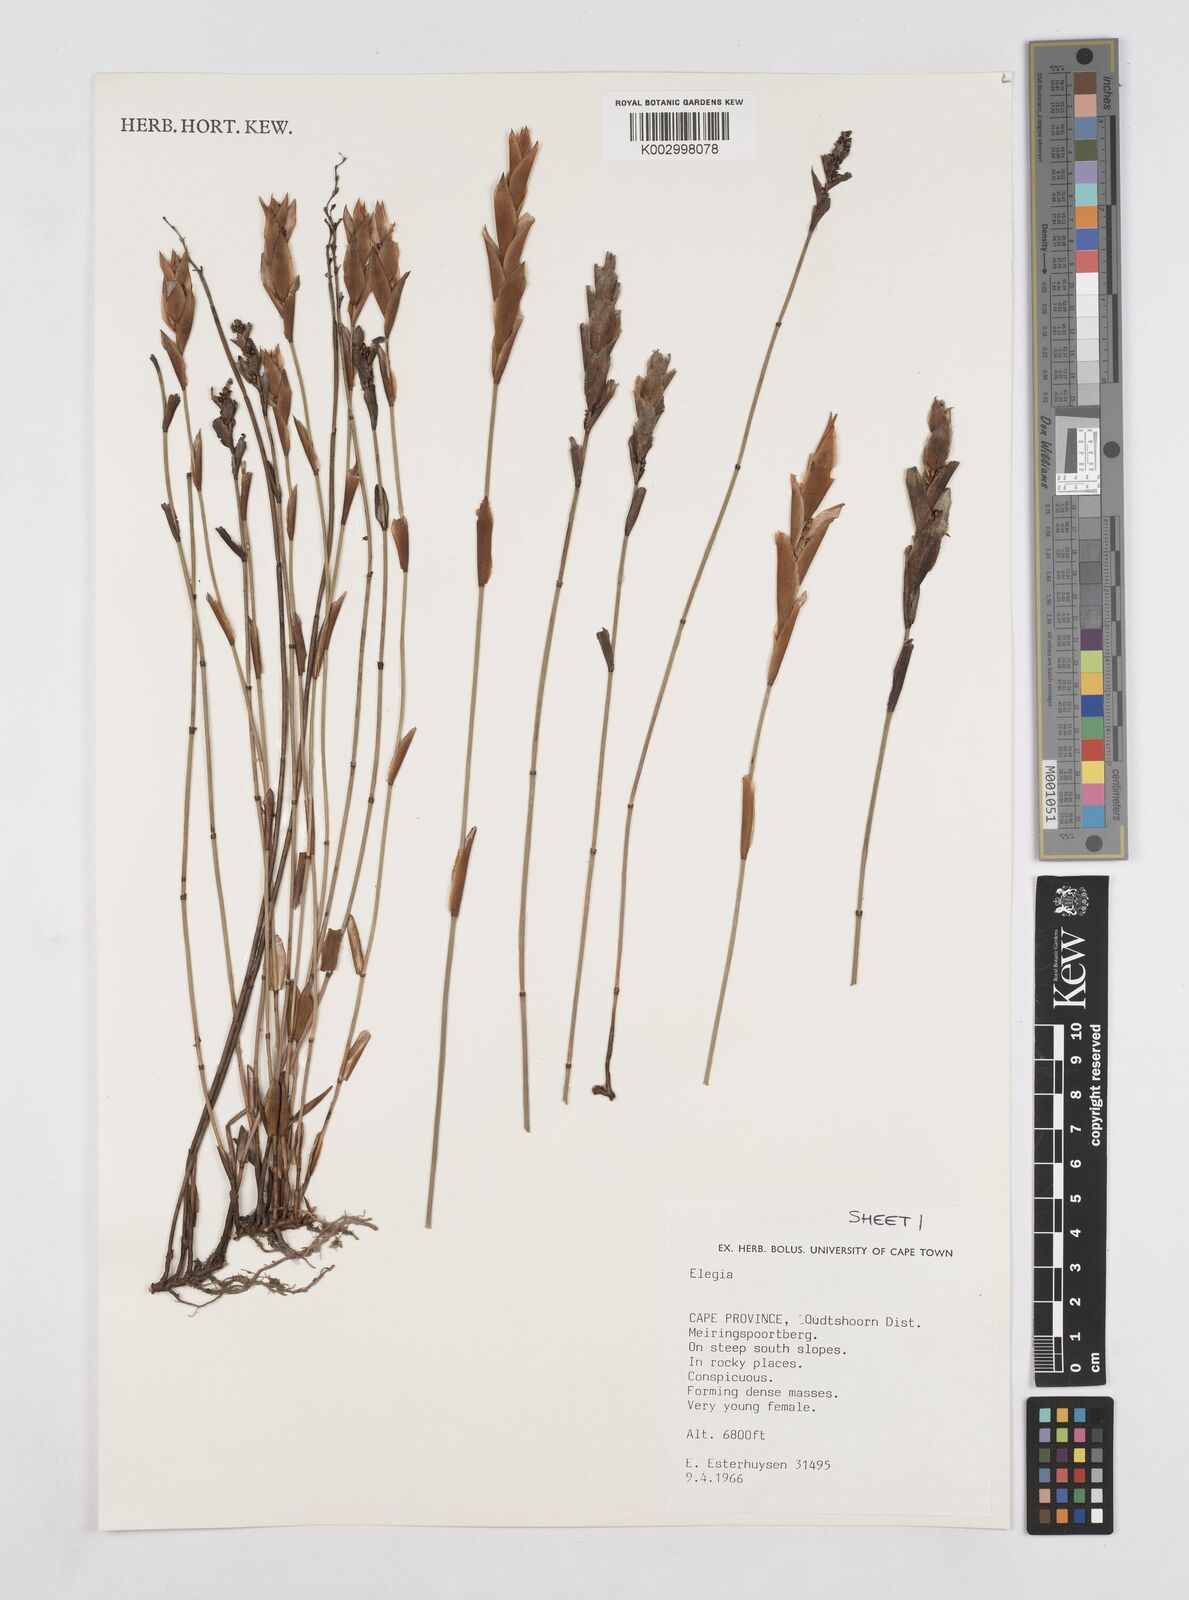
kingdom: Plantae
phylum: Tracheophyta
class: Liliopsida
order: Poales
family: Restionaceae
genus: Elegia
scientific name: Elegia
